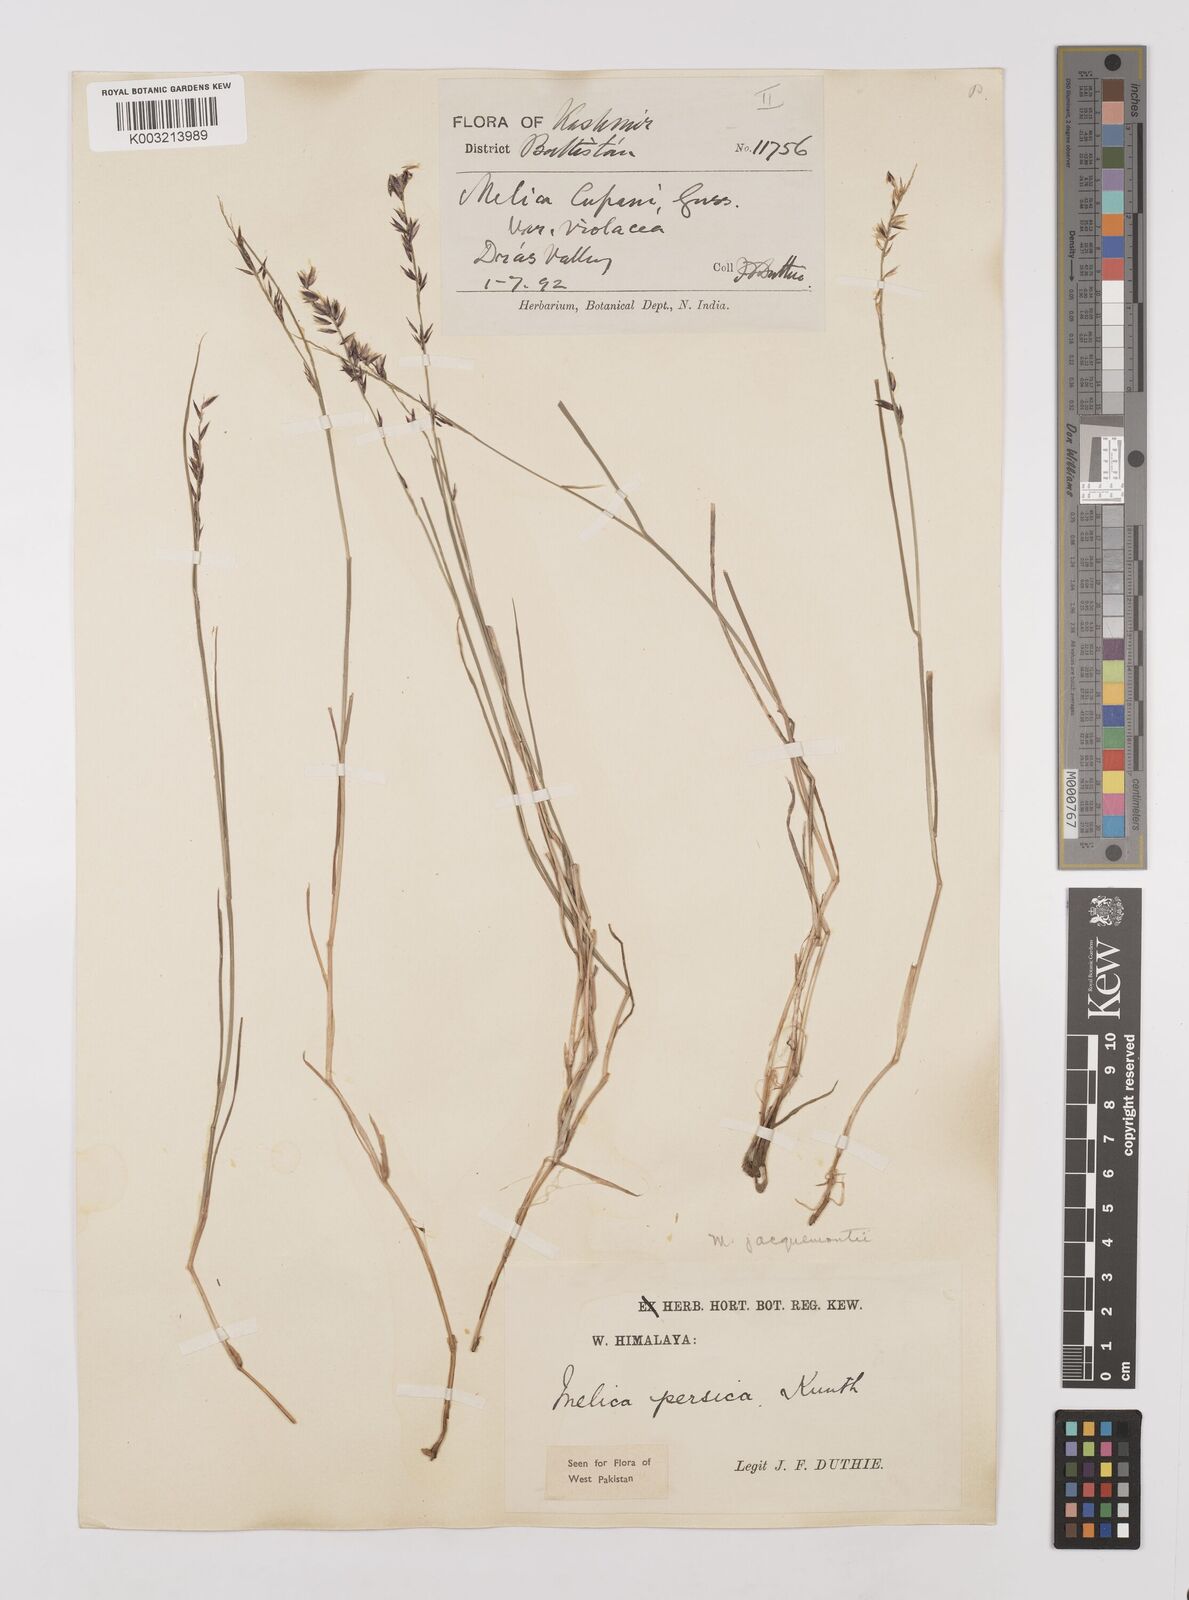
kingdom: Plantae
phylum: Tracheophyta
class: Liliopsida
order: Poales
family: Poaceae
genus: Melica
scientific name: Melica persica
